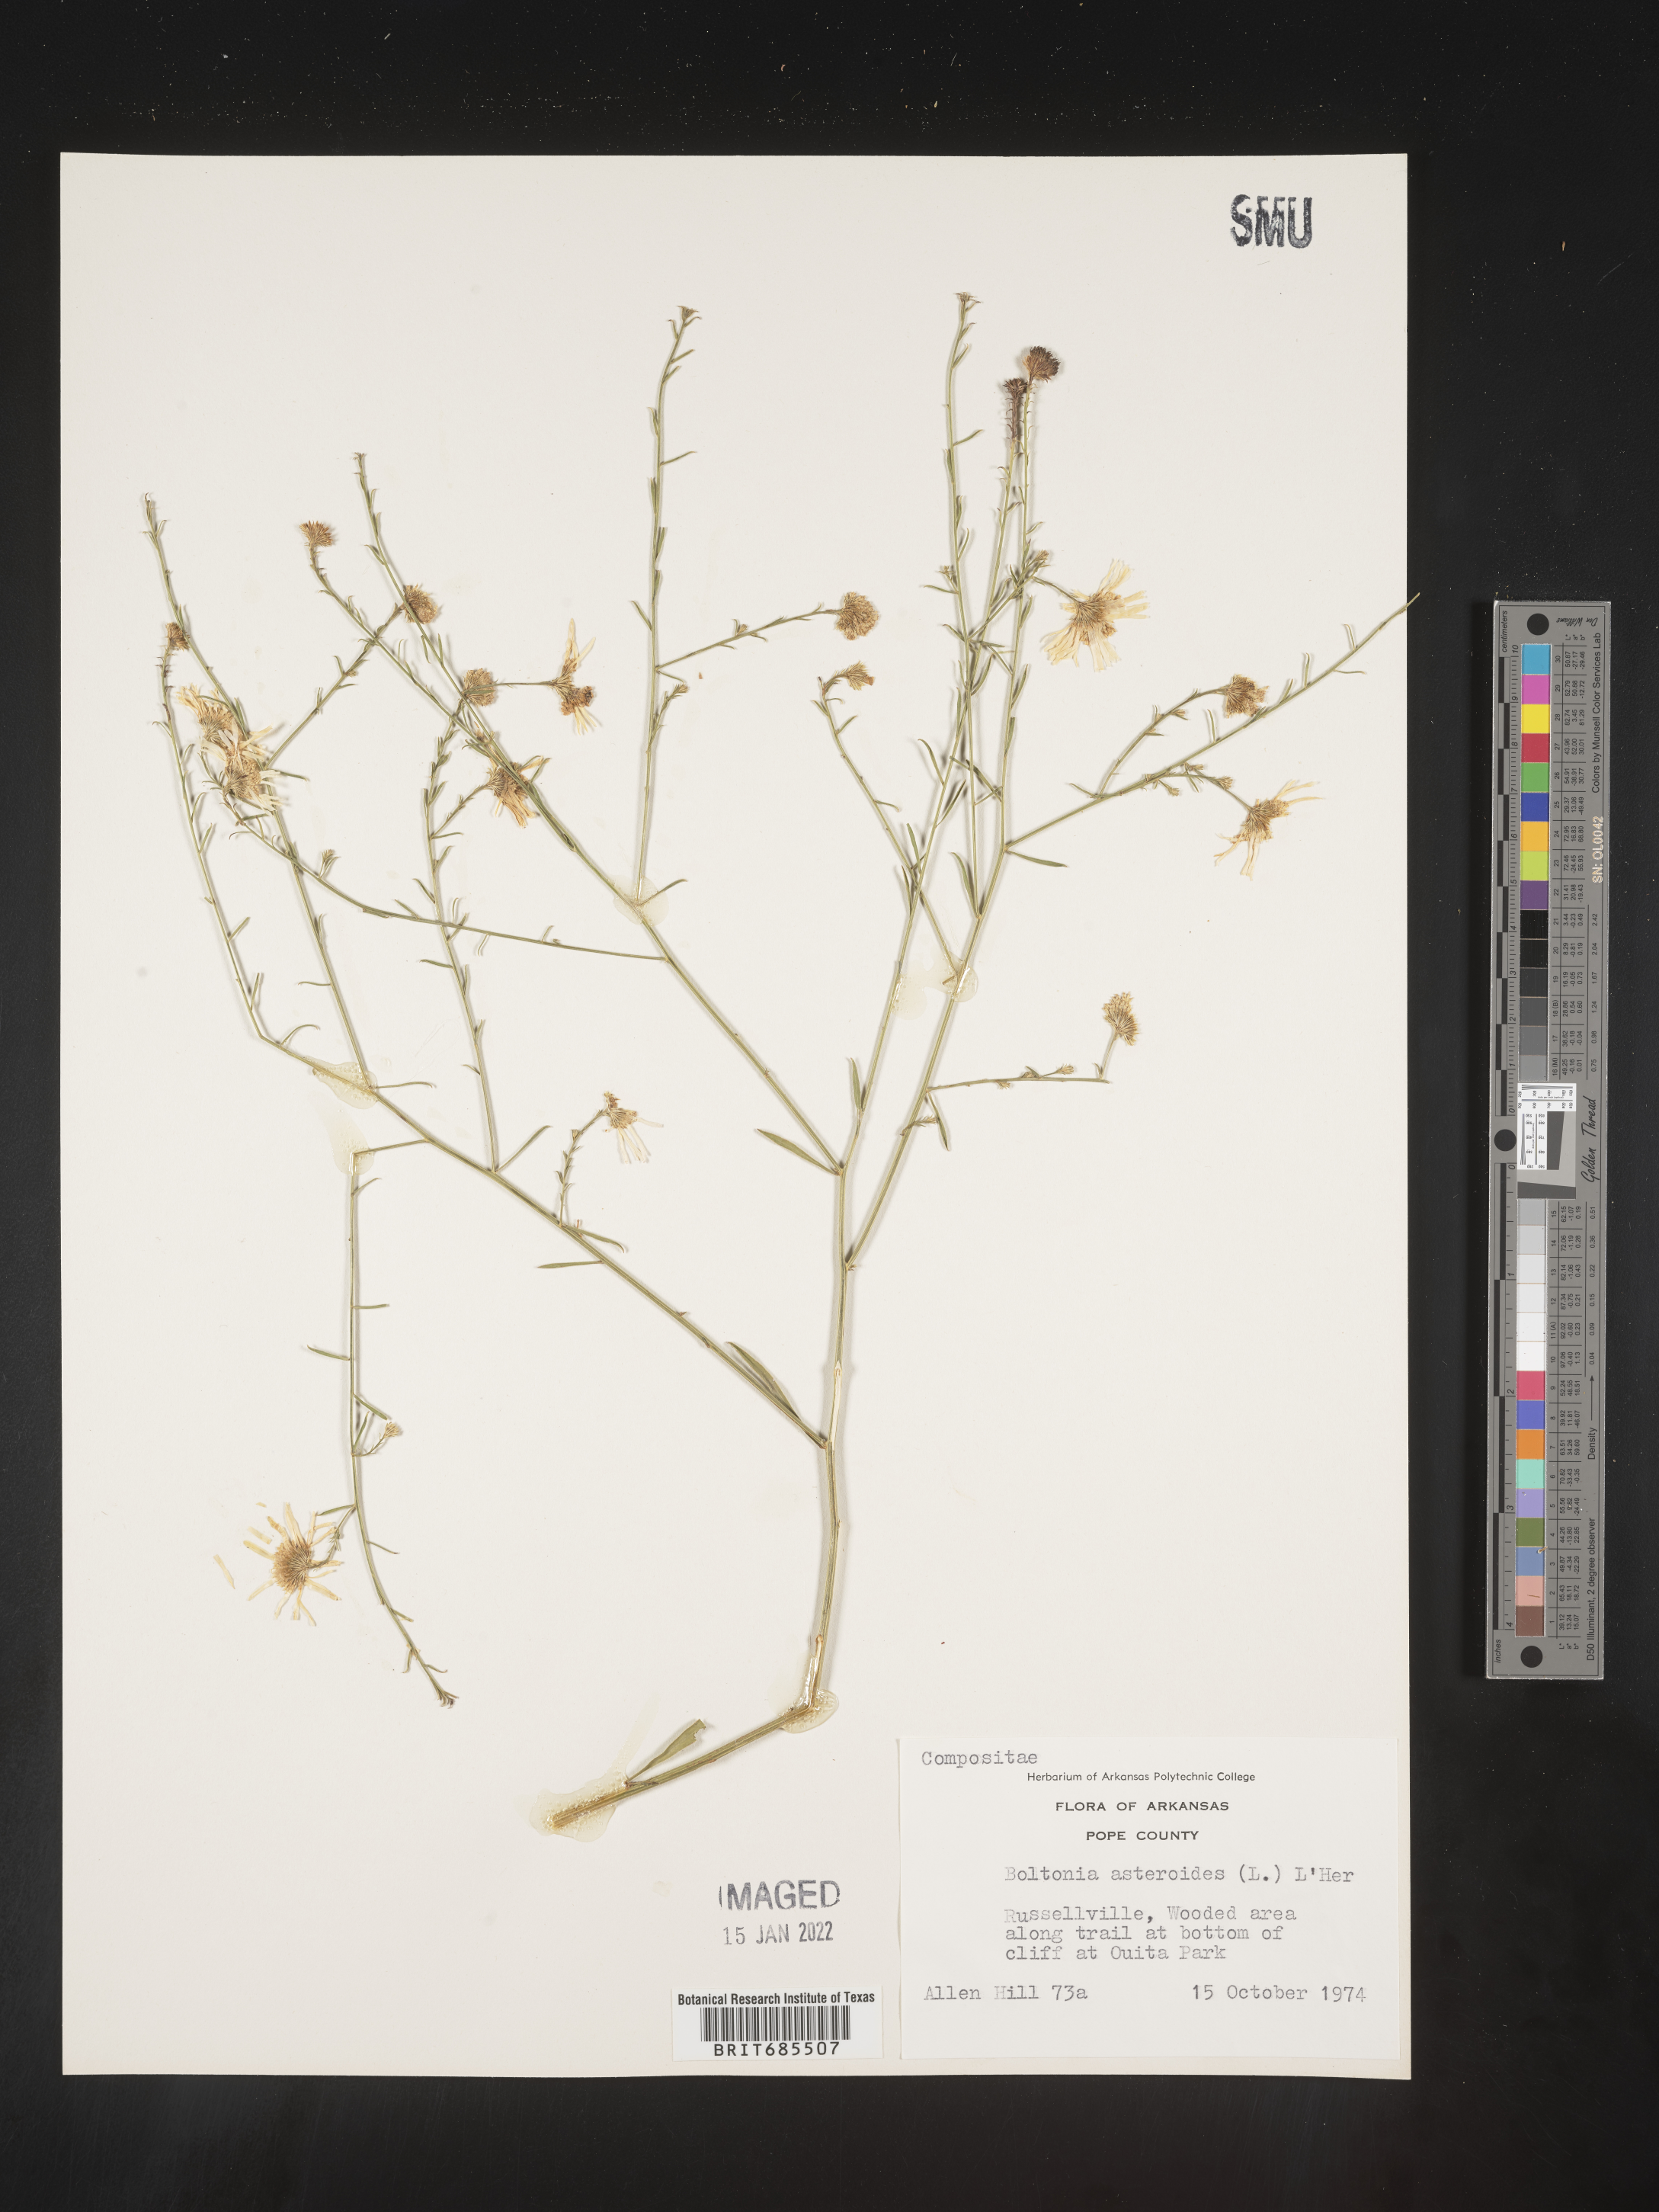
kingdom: Plantae
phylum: Tracheophyta
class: Magnoliopsida
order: Asterales
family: Asteraceae
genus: Boltonia
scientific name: Boltonia asteroides
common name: False chamomile
